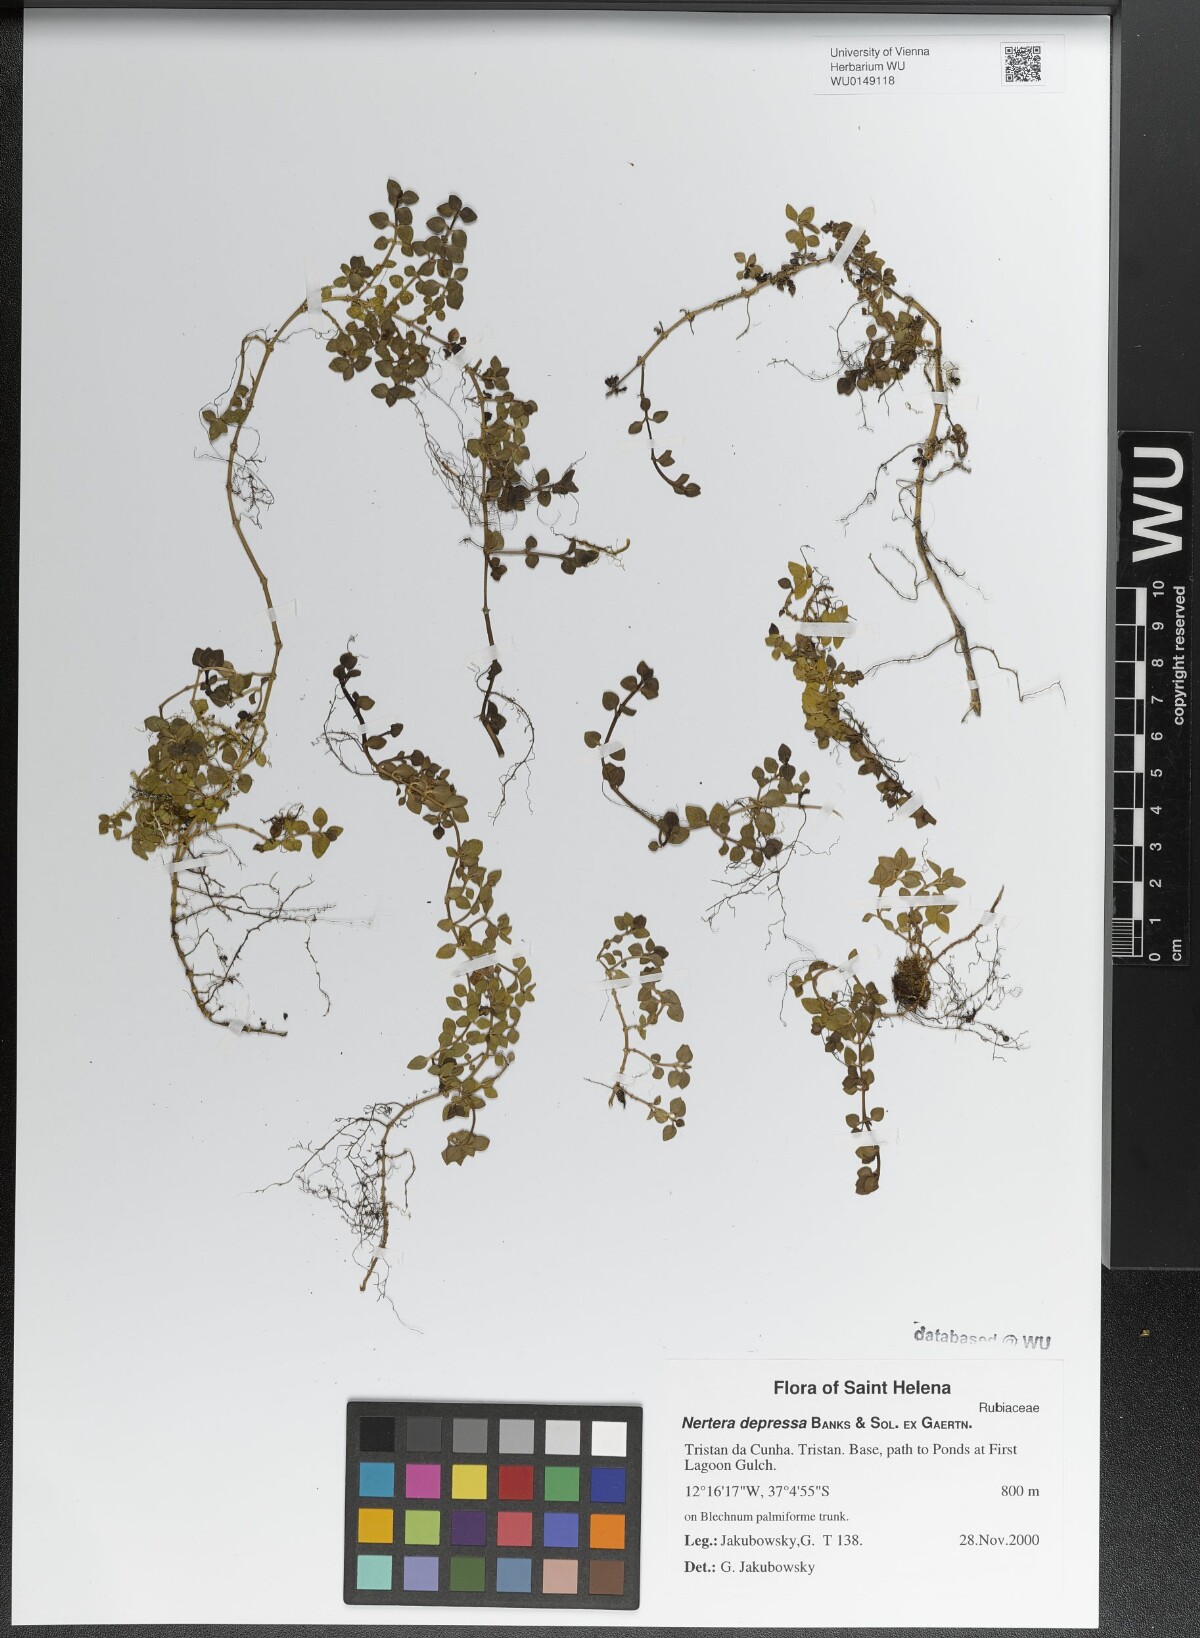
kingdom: Plantae
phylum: Tracheophyta
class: Magnoliopsida
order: Gentianales
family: Rubiaceae
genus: Nertera
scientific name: Nertera granadensis
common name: Beadplant
